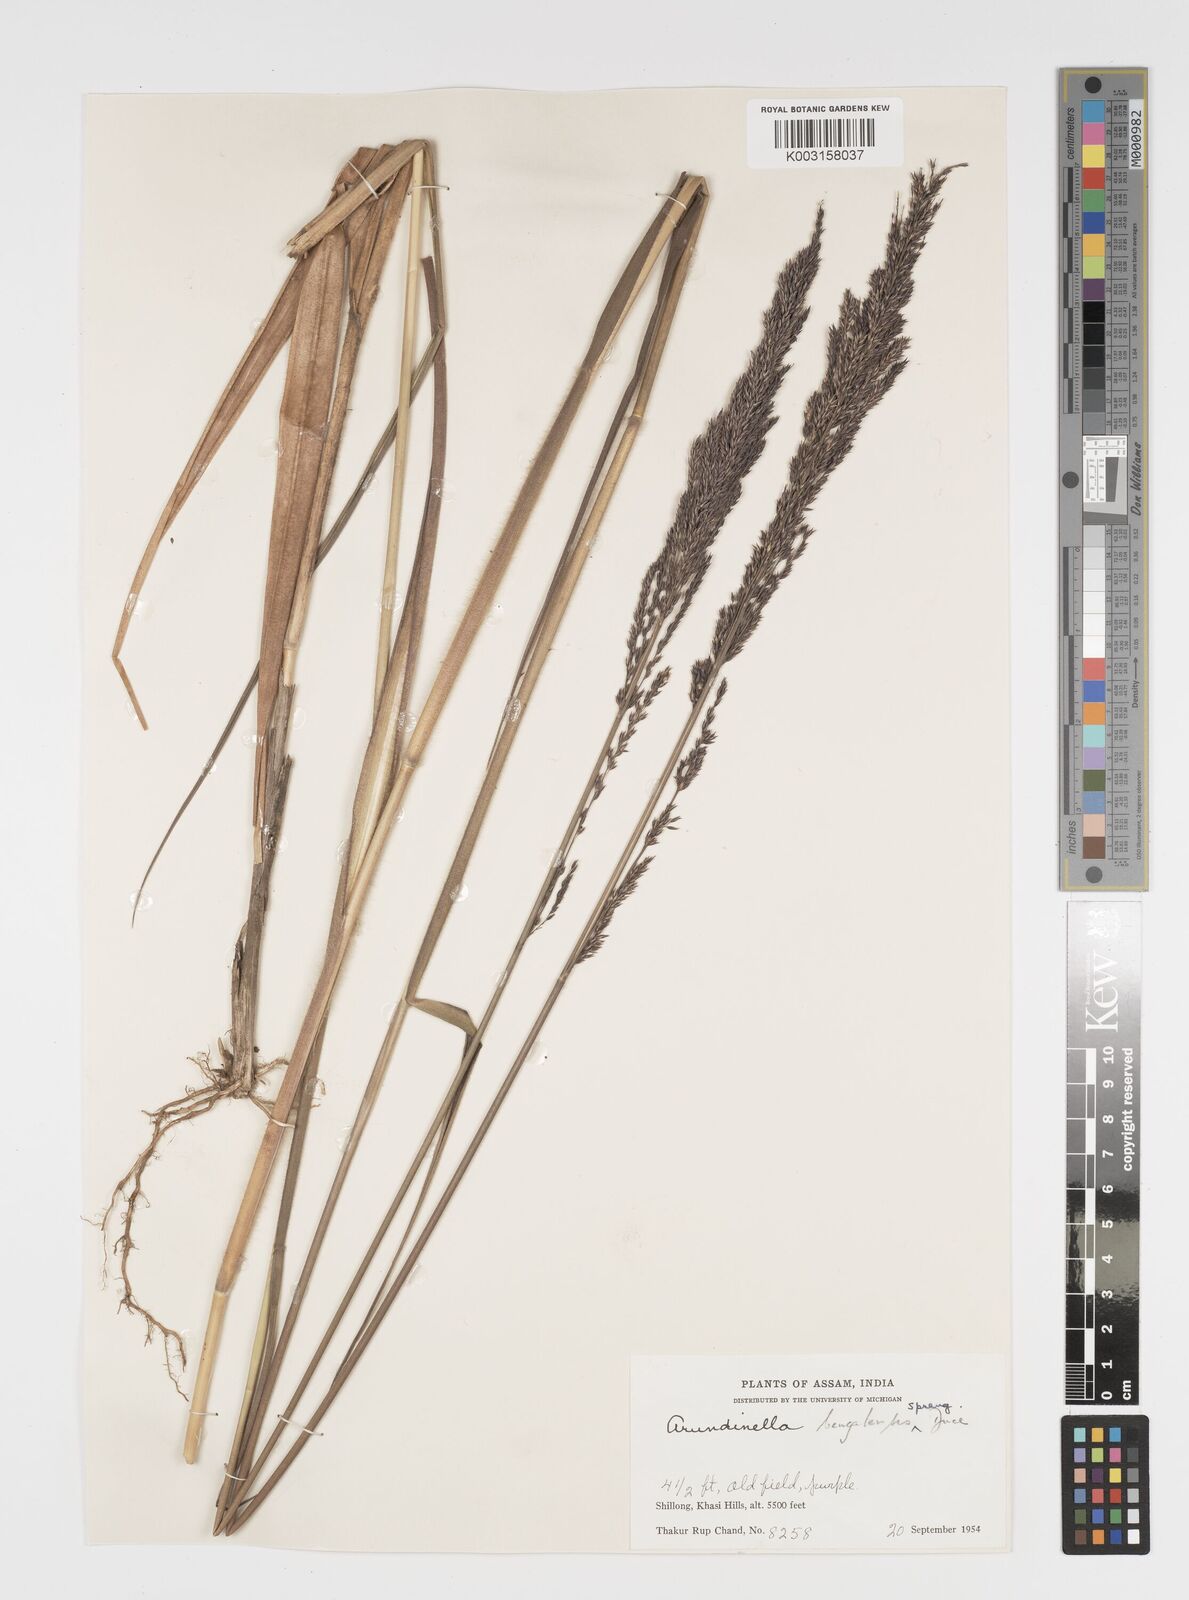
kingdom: Plantae
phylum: Tracheophyta
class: Liliopsida
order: Poales
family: Poaceae
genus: Arundinella
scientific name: Arundinella bengalensis
